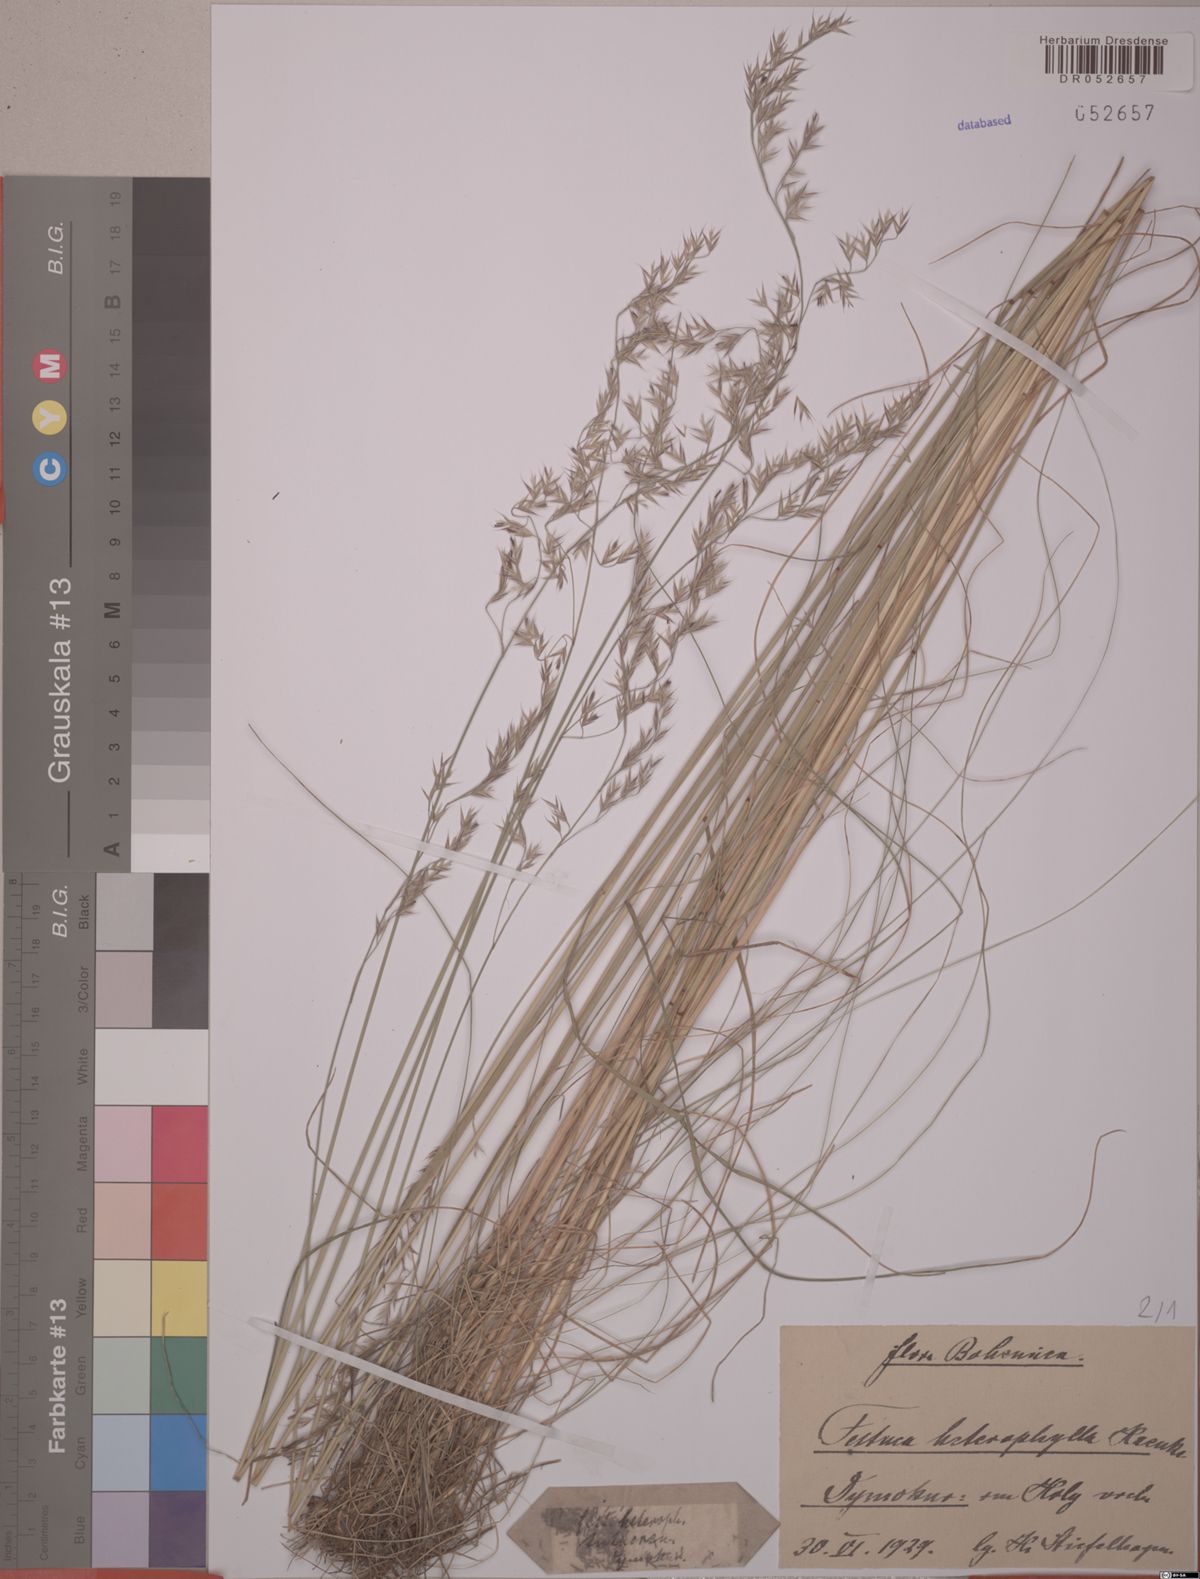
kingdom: Plantae
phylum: Tracheophyta
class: Liliopsida
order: Poales
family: Poaceae
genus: Festuca
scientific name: Festuca heterophylla
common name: Various-leaved fescue
